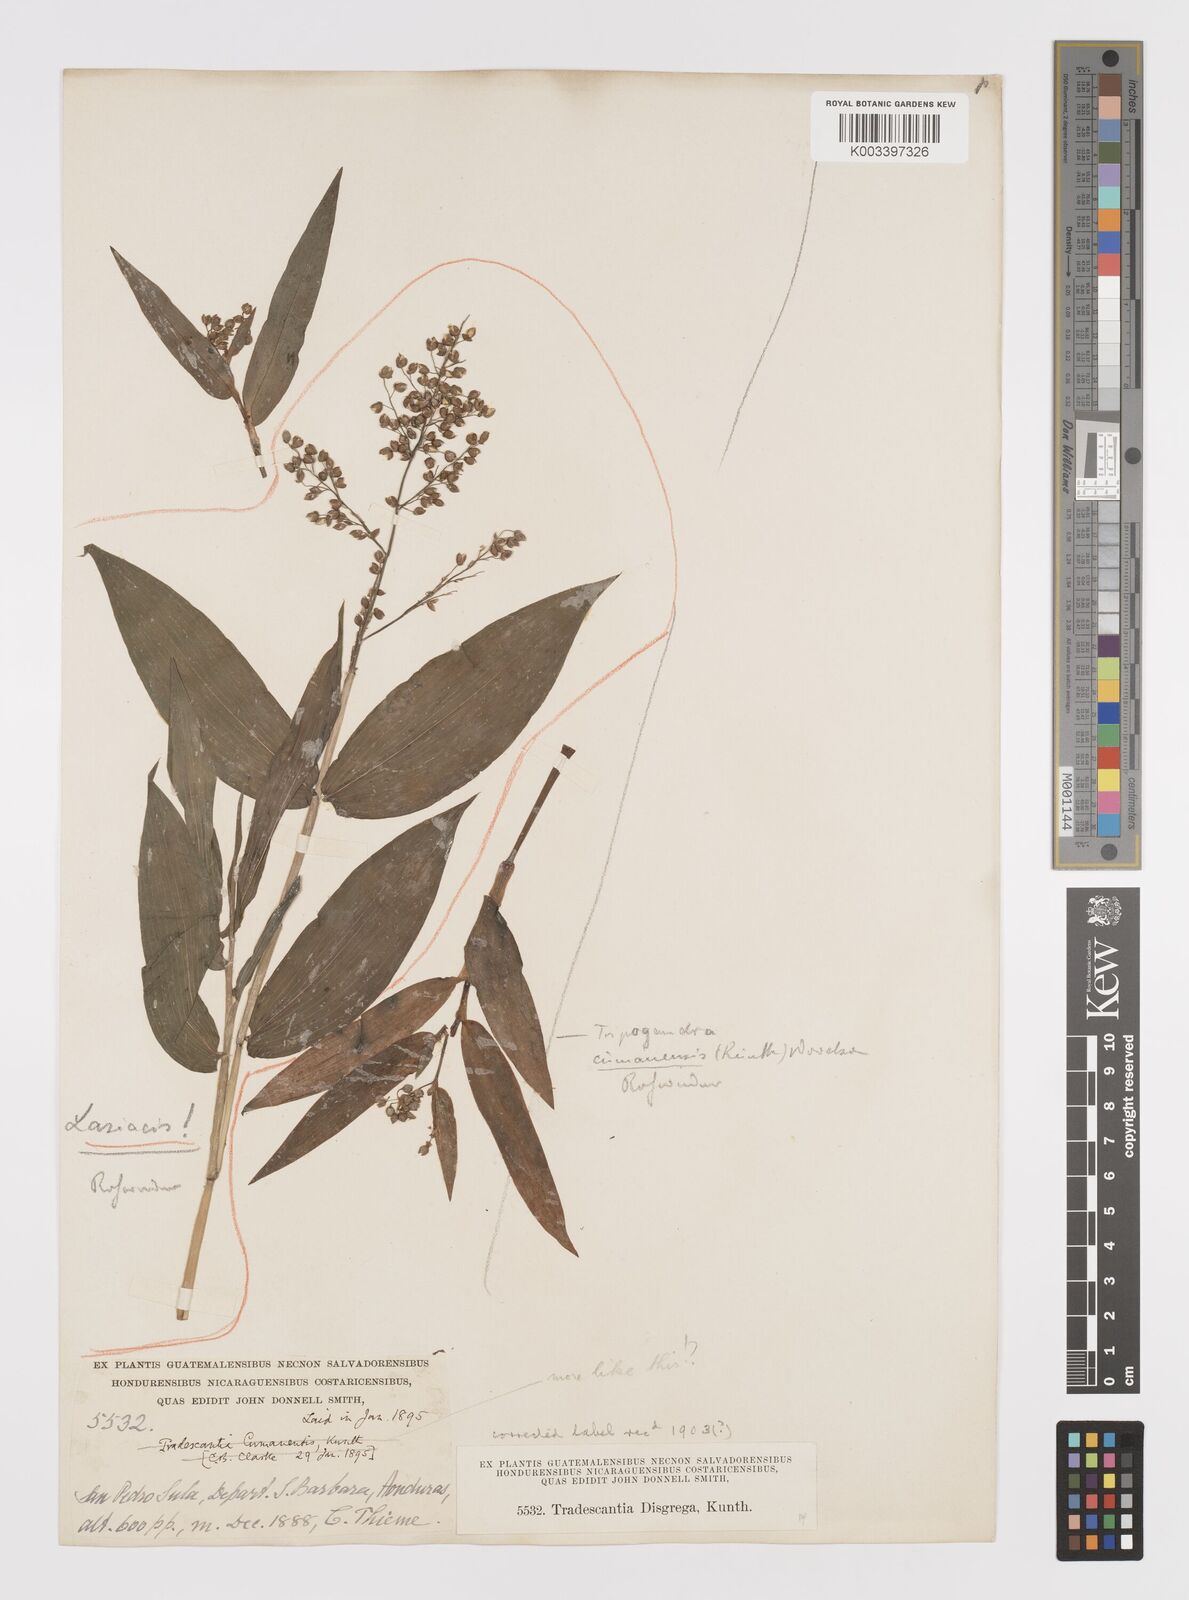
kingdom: Plantae
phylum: Tracheophyta
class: Liliopsida
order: Commelinales
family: Commelinaceae
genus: Callisia
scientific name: Callisia serrulata
